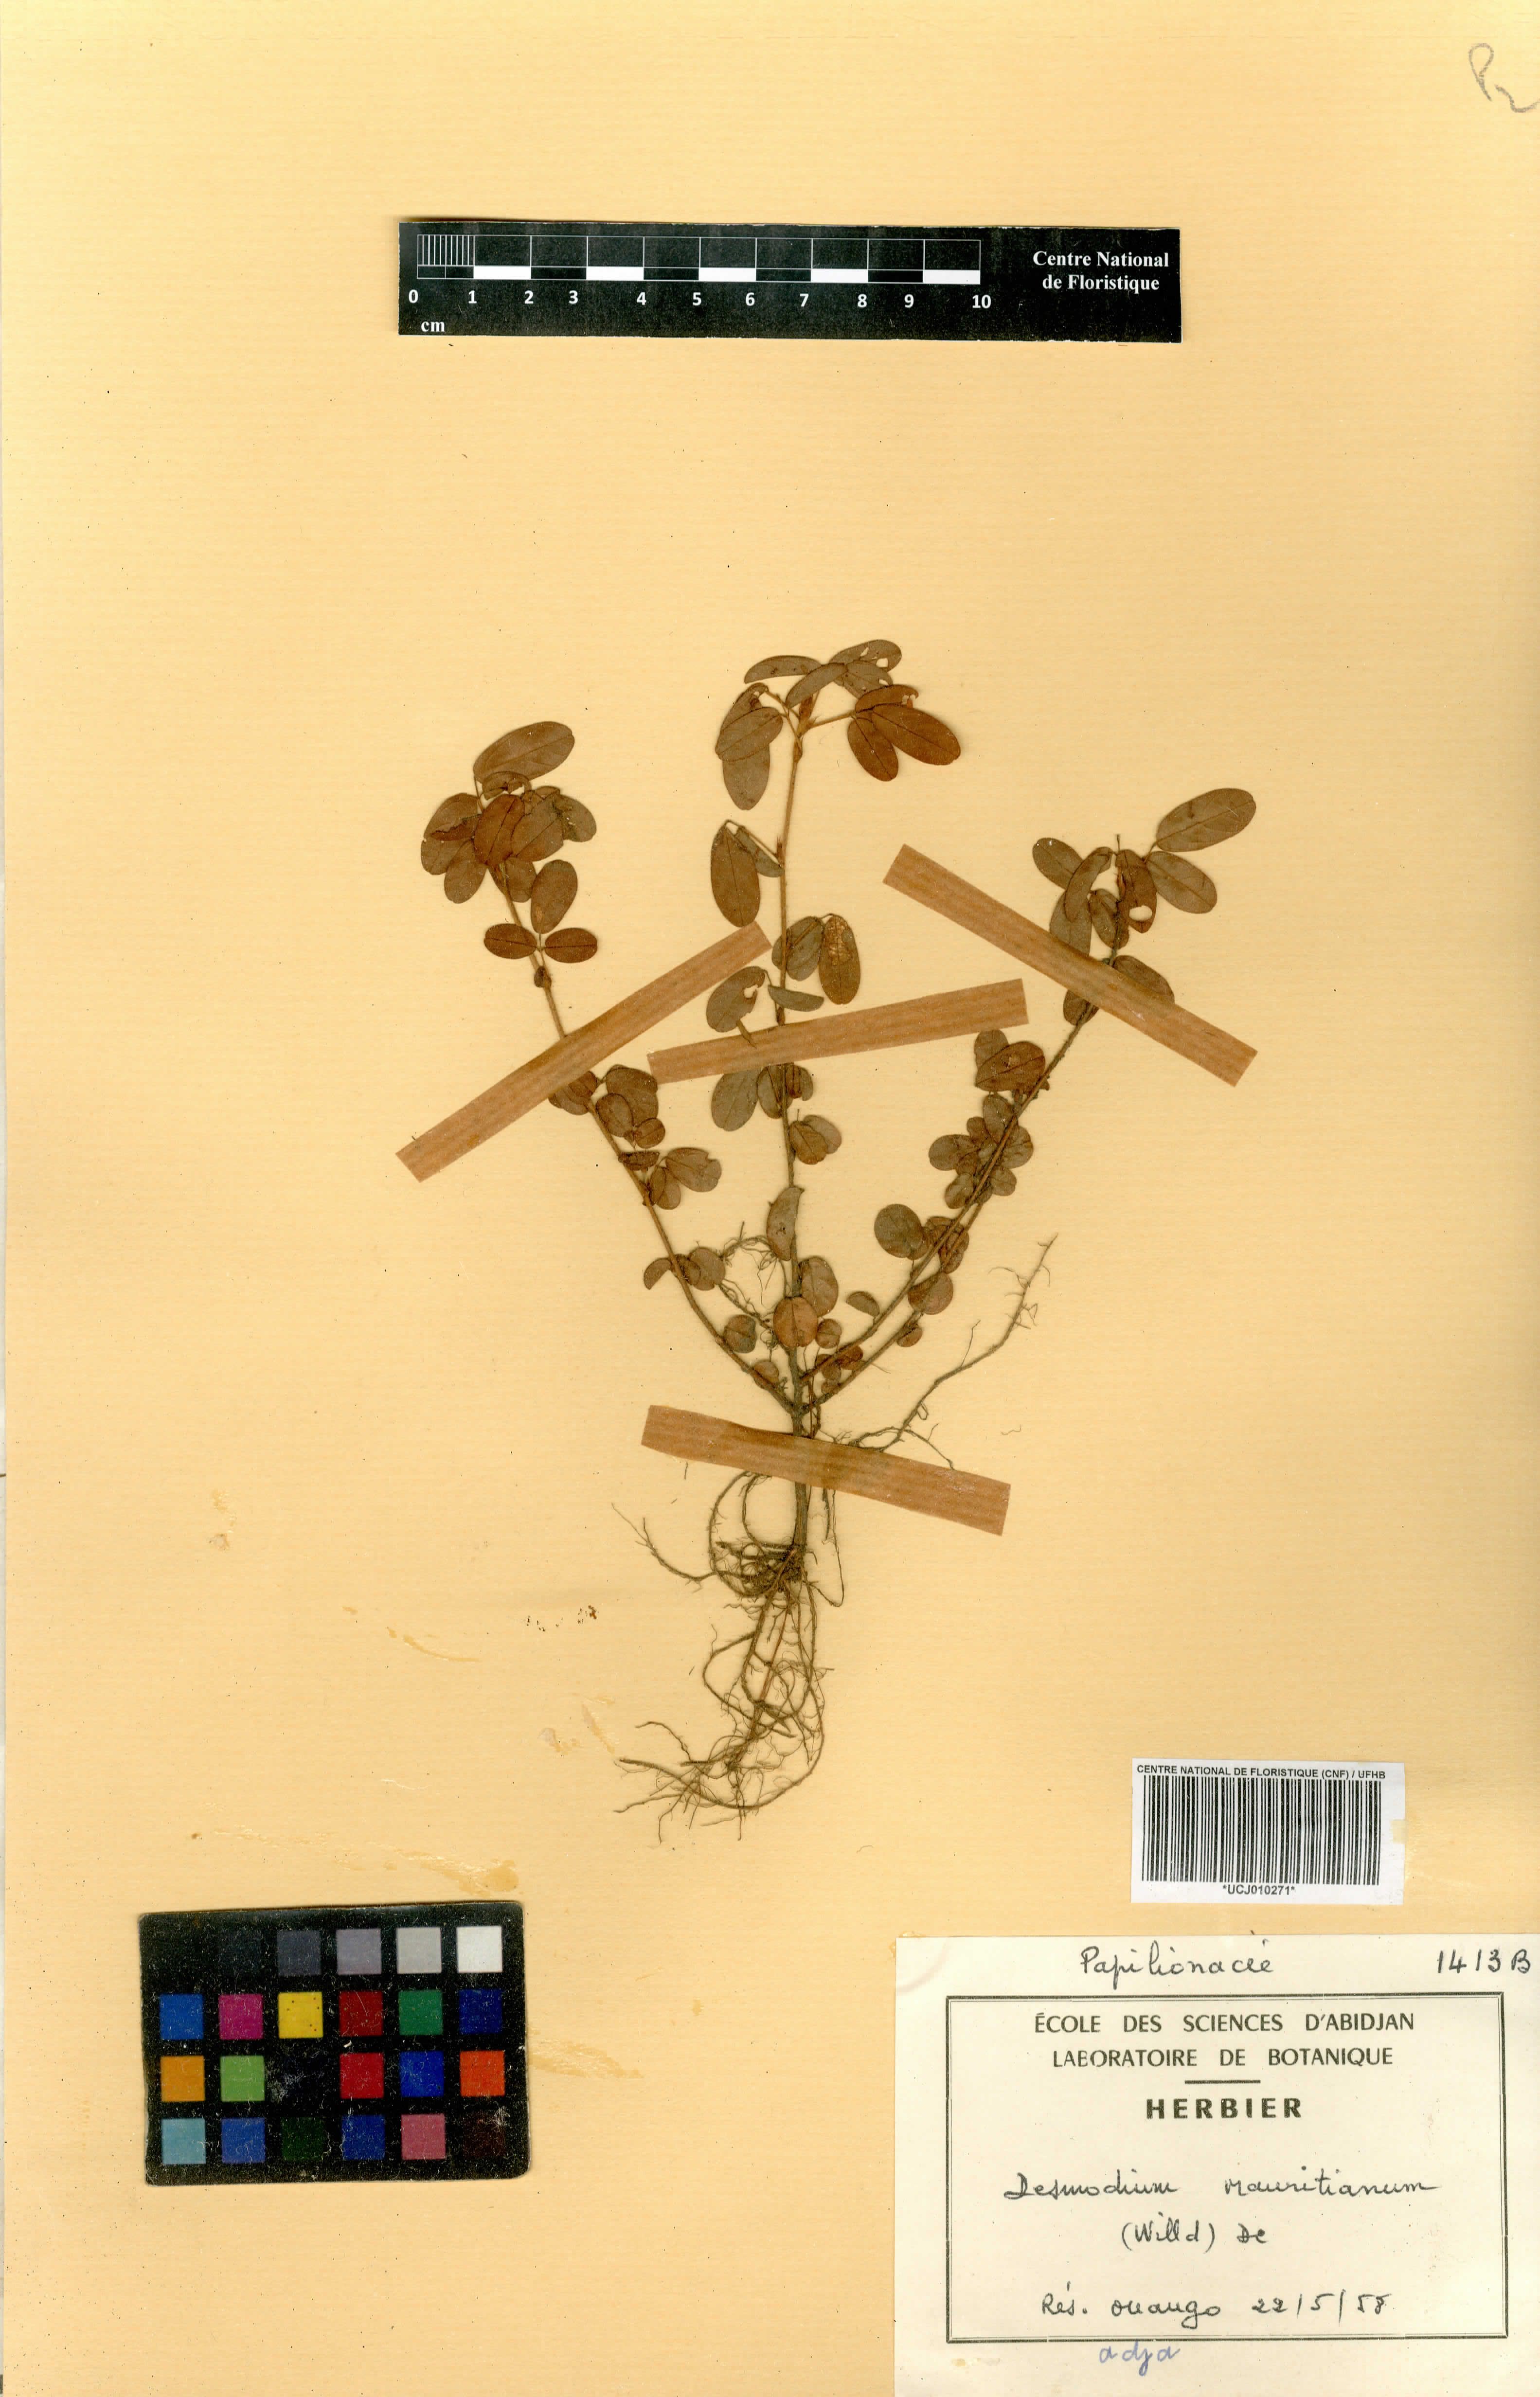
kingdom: Plantae
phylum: Tracheophyta
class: Magnoliopsida
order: Fabales
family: Fabaceae
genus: Desmodium
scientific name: Desmodium incanum
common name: Tickclover
